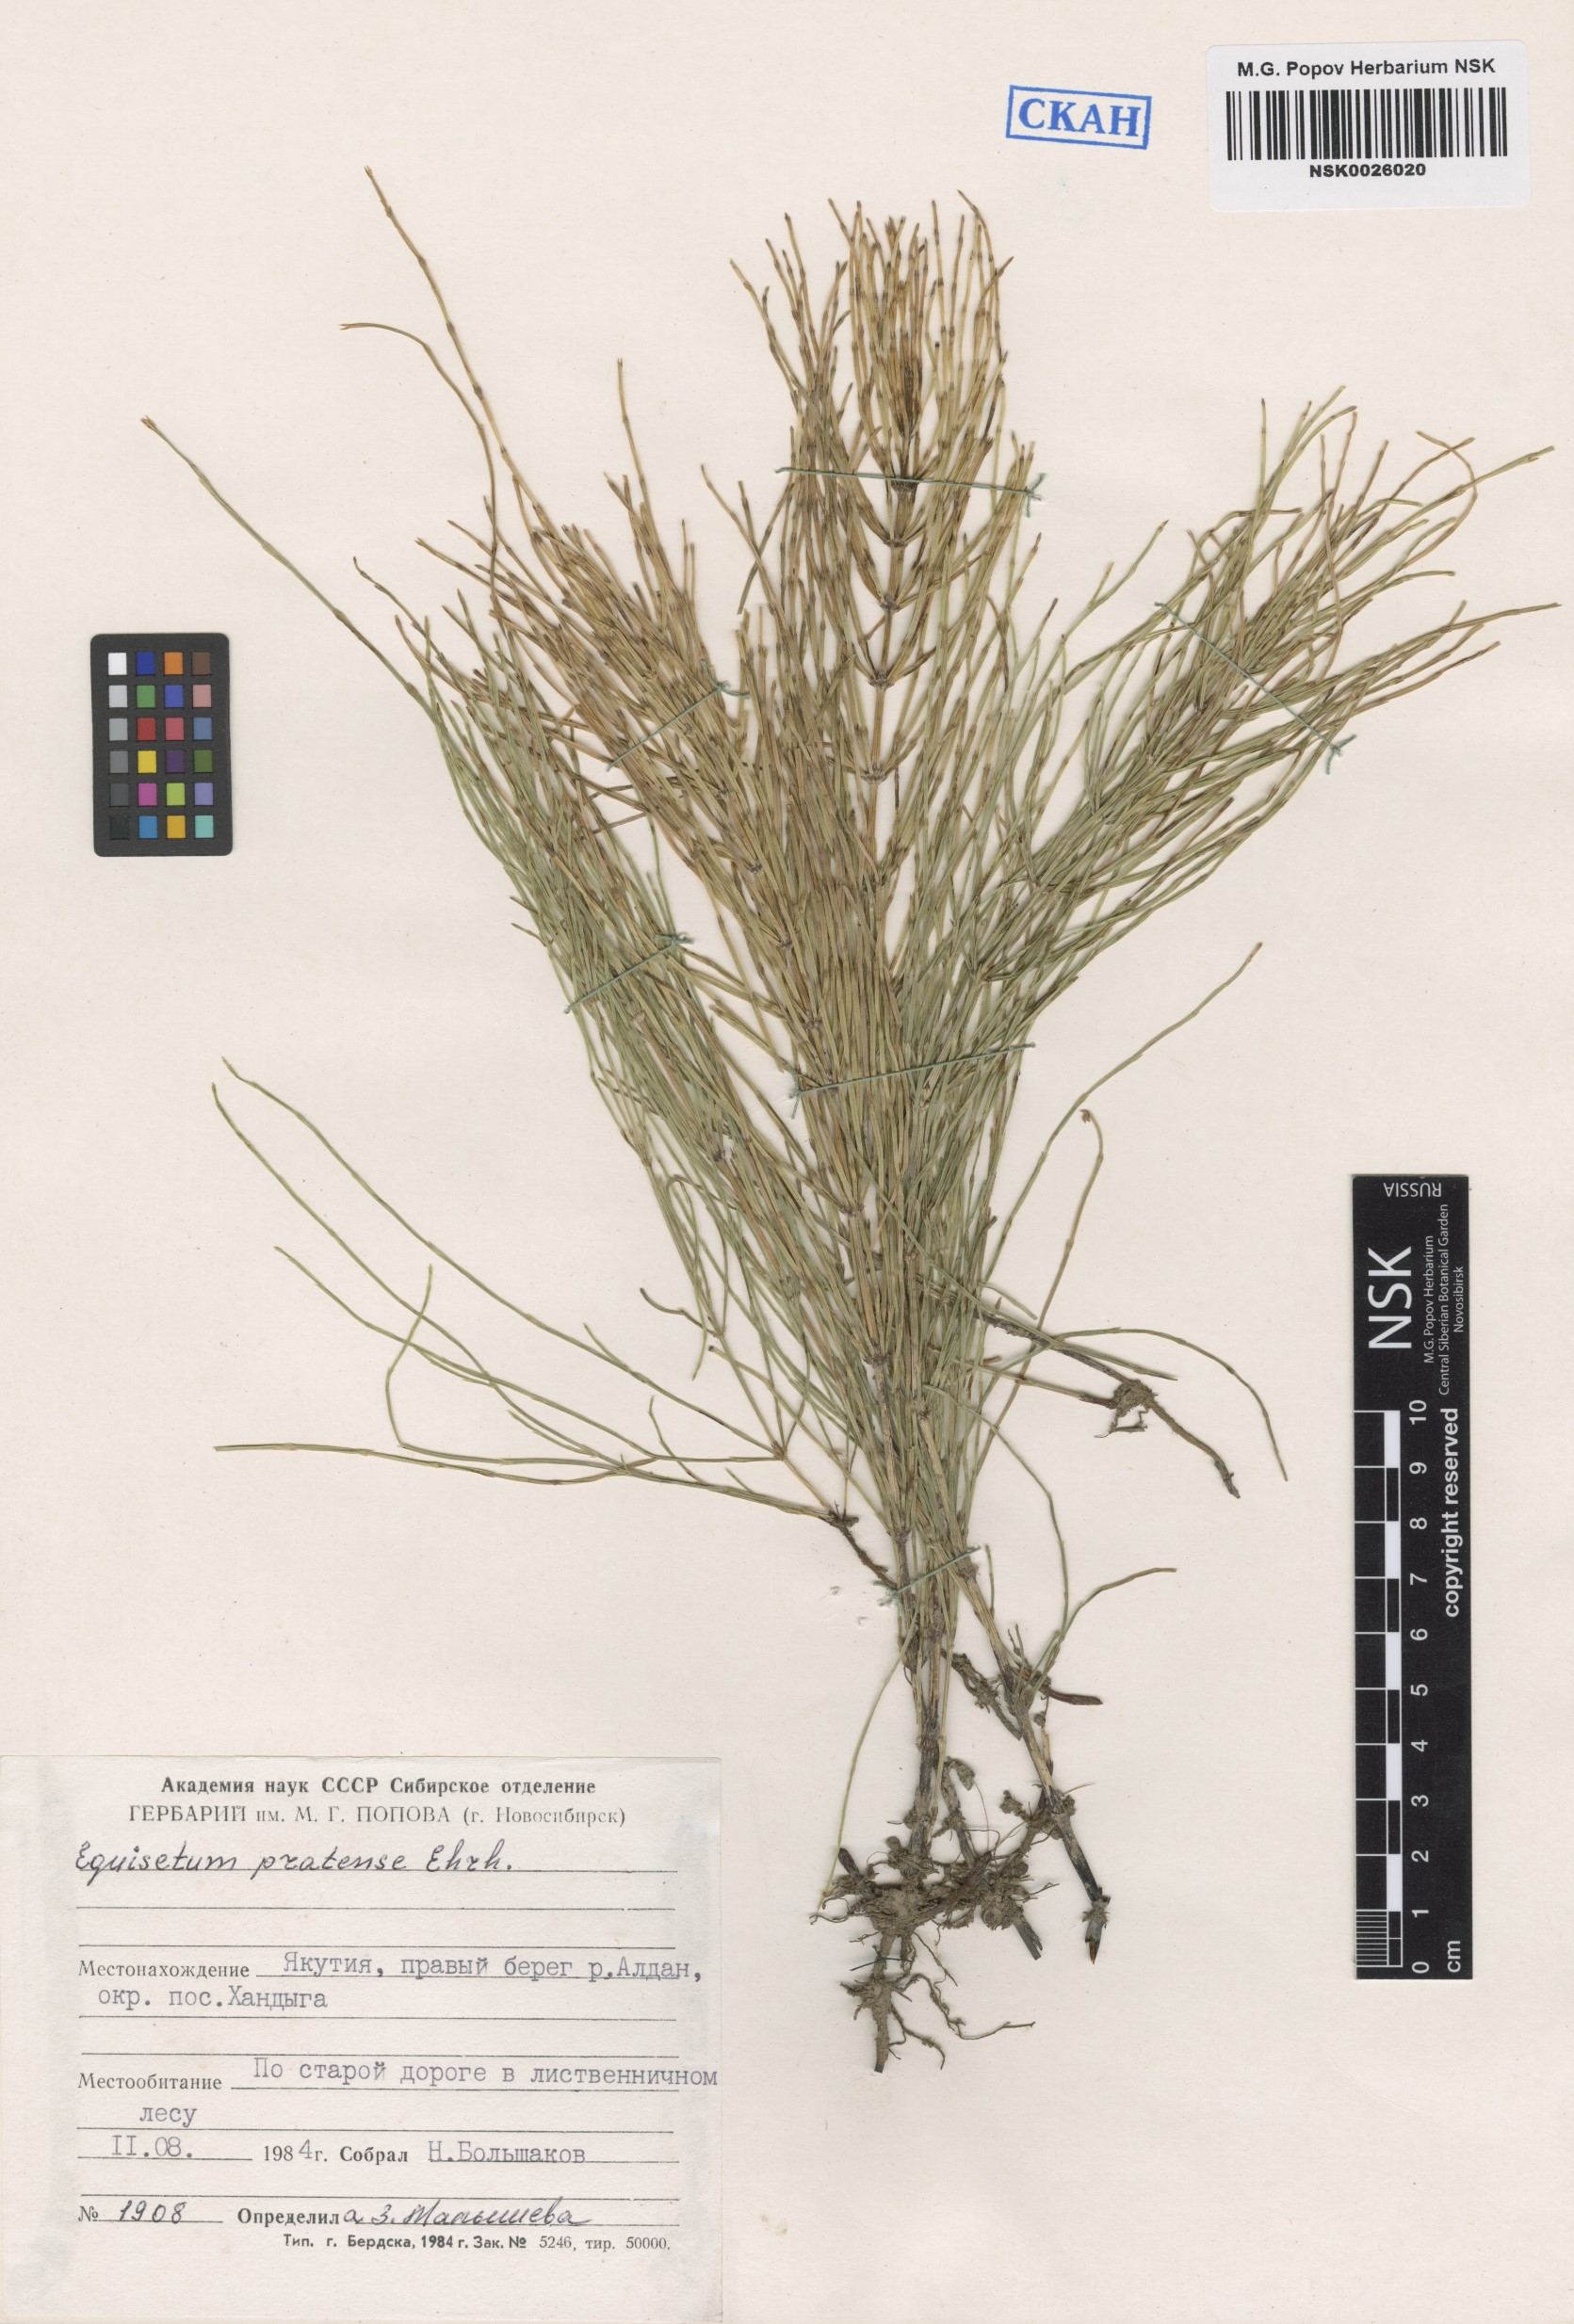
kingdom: Plantae
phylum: Tracheophyta
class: Polypodiopsida
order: Equisetales
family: Equisetaceae
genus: Equisetum
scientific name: Equisetum pratense
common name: Meadow horsetail
